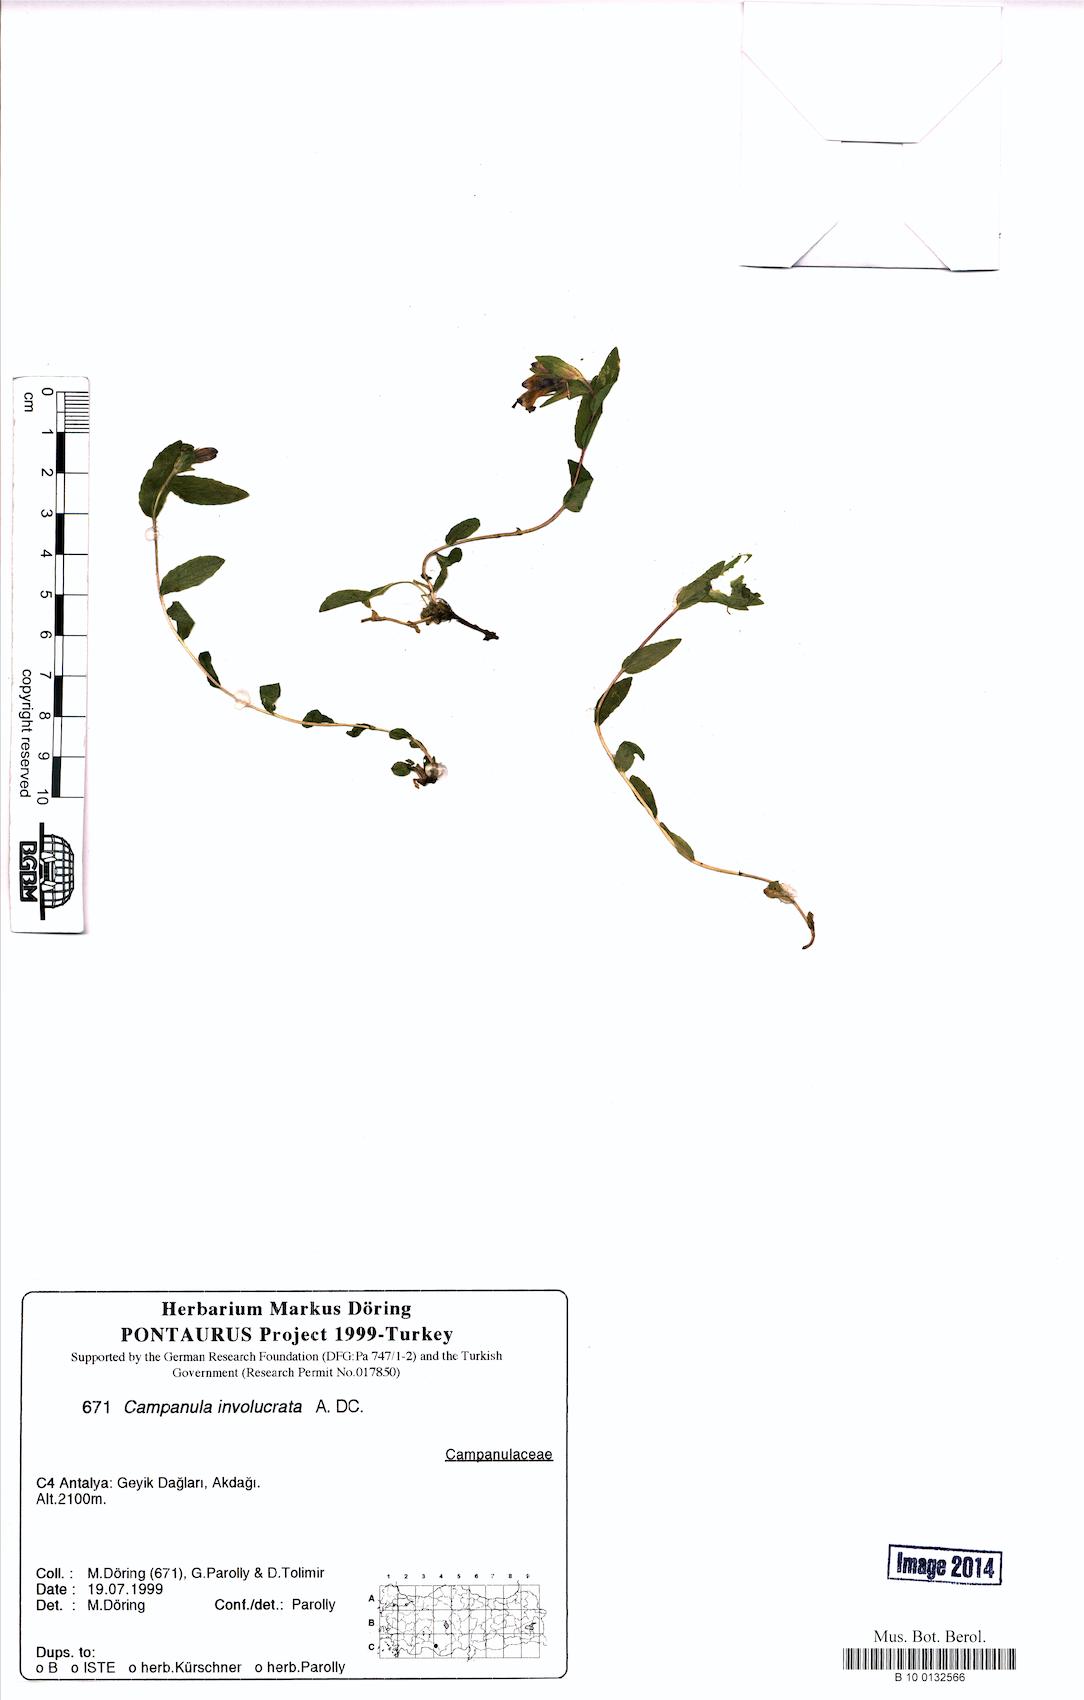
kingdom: Plantae
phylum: Tracheophyta
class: Magnoliopsida
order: Asterales
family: Campanulaceae
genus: Campanula
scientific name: Campanula involucrata
